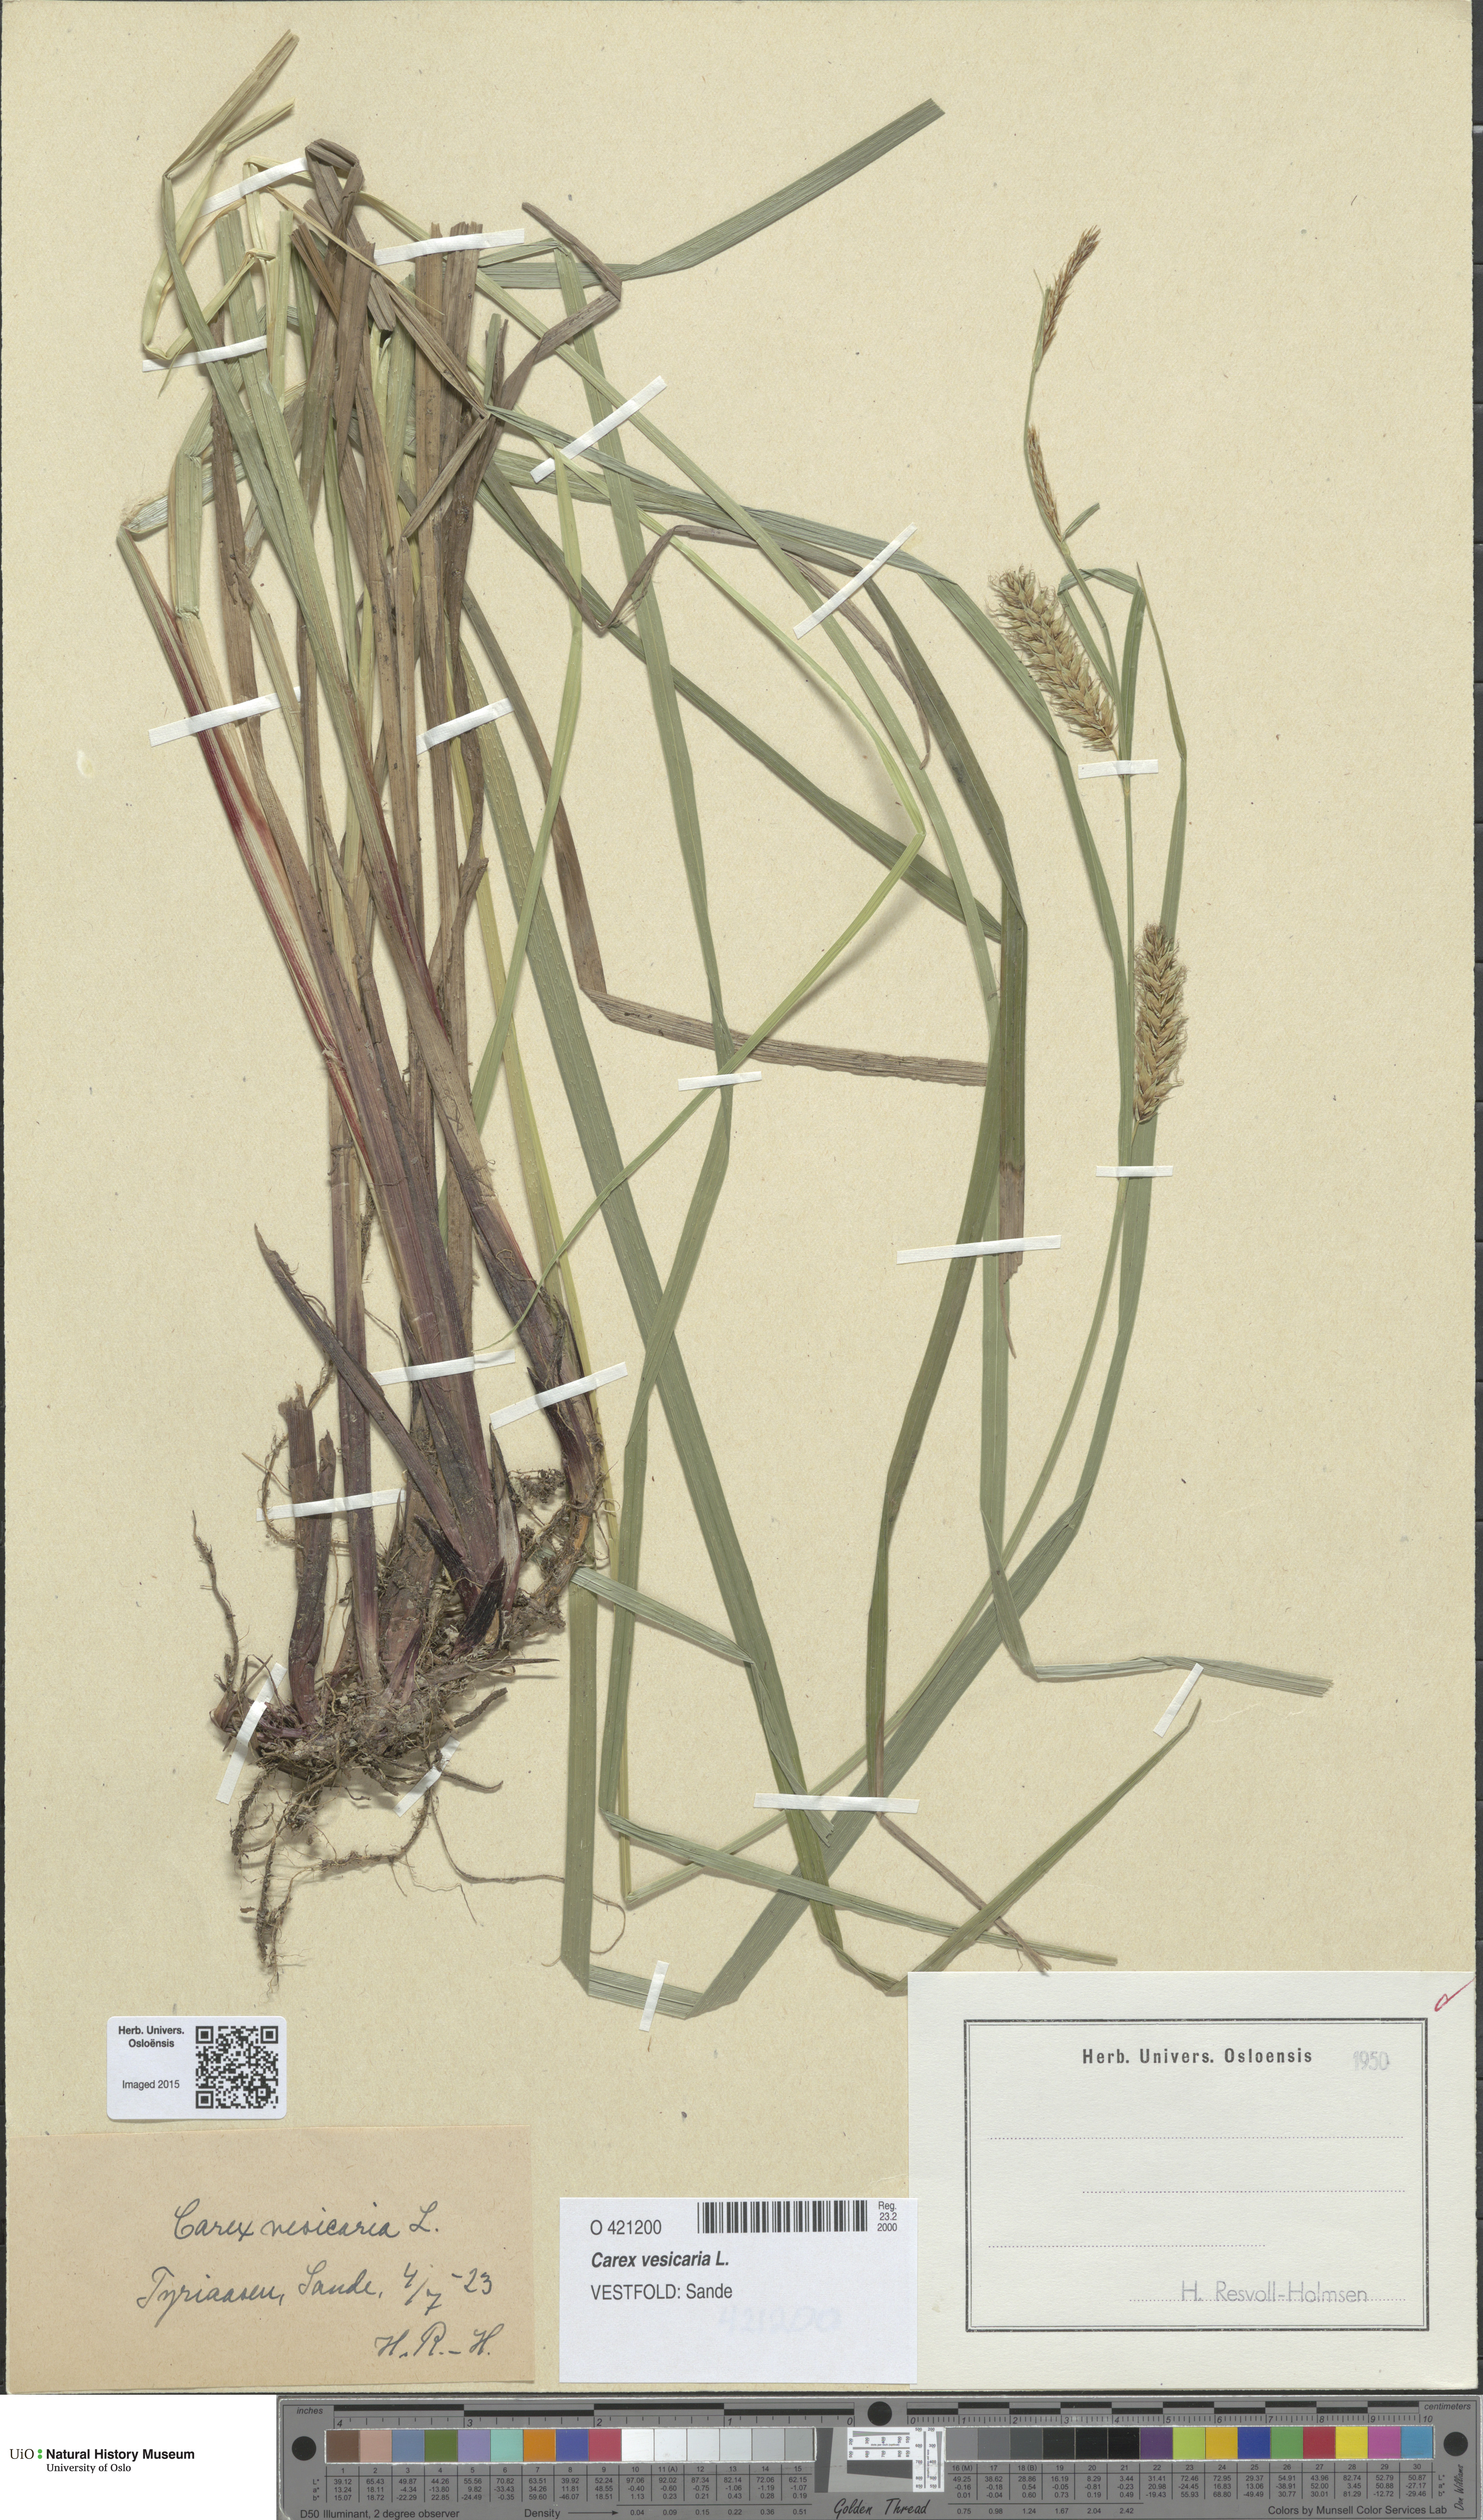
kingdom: Plantae
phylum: Tracheophyta
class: Liliopsida
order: Poales
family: Cyperaceae
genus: Carex
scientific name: Carex vesicaria
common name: Bladder-sedge
